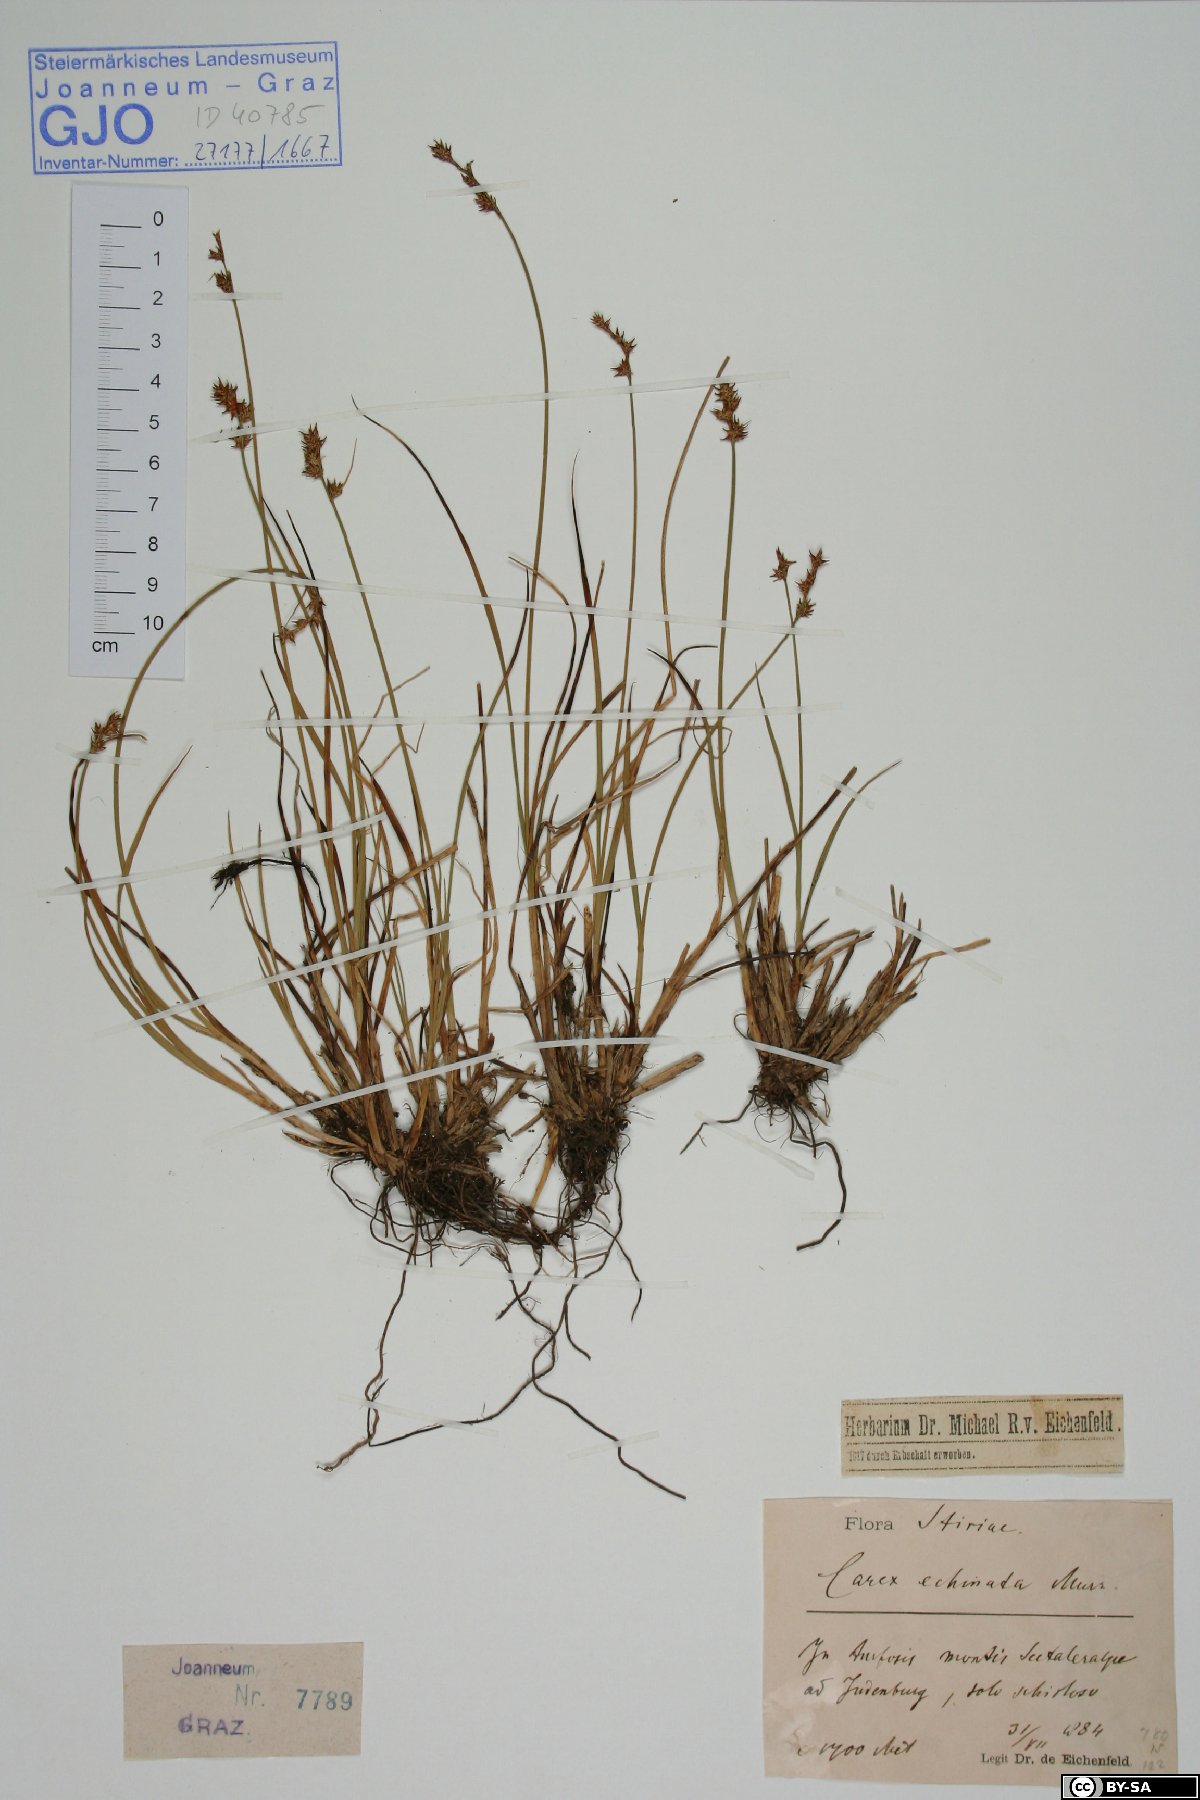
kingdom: Plantae
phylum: Tracheophyta
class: Liliopsida
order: Poales
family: Cyperaceae
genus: Carex
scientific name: Carex echinata
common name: Star sedge
